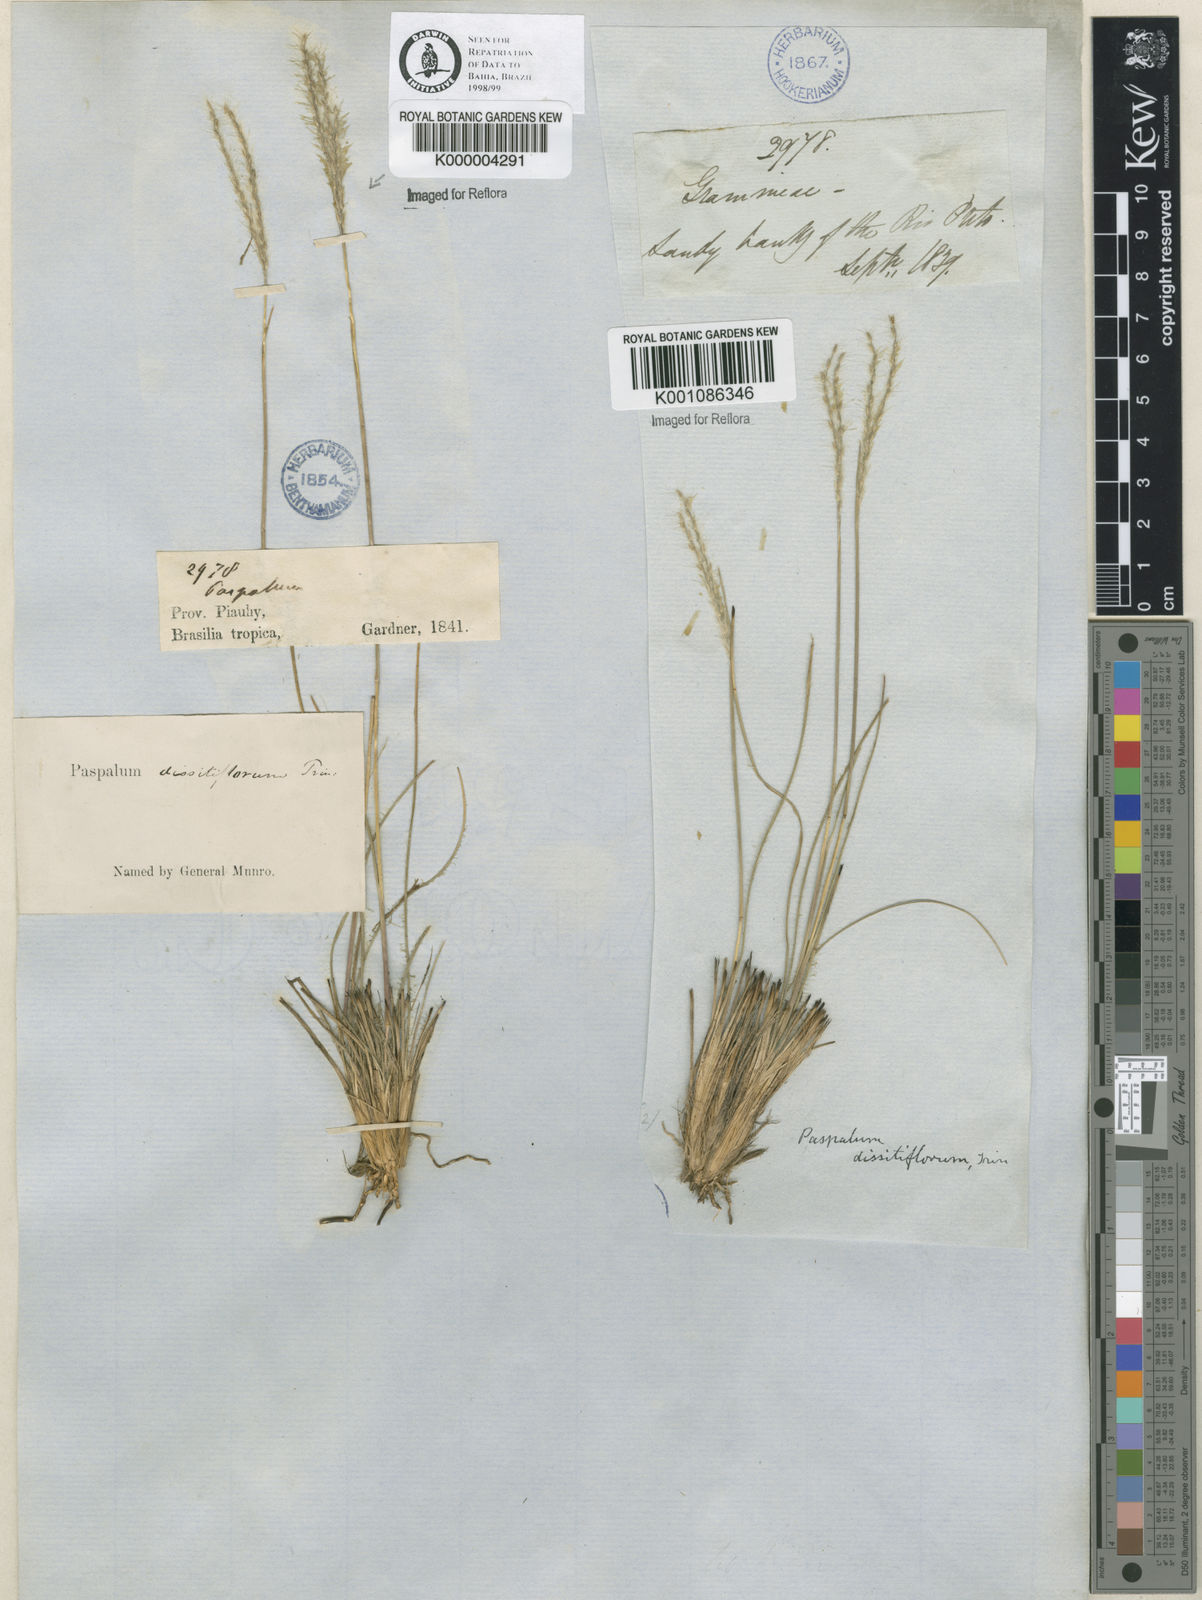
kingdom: Plantae
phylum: Tracheophyta
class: Liliopsida
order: Poales
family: Poaceae
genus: Axonopus
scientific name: Axonopus brasiliensis
